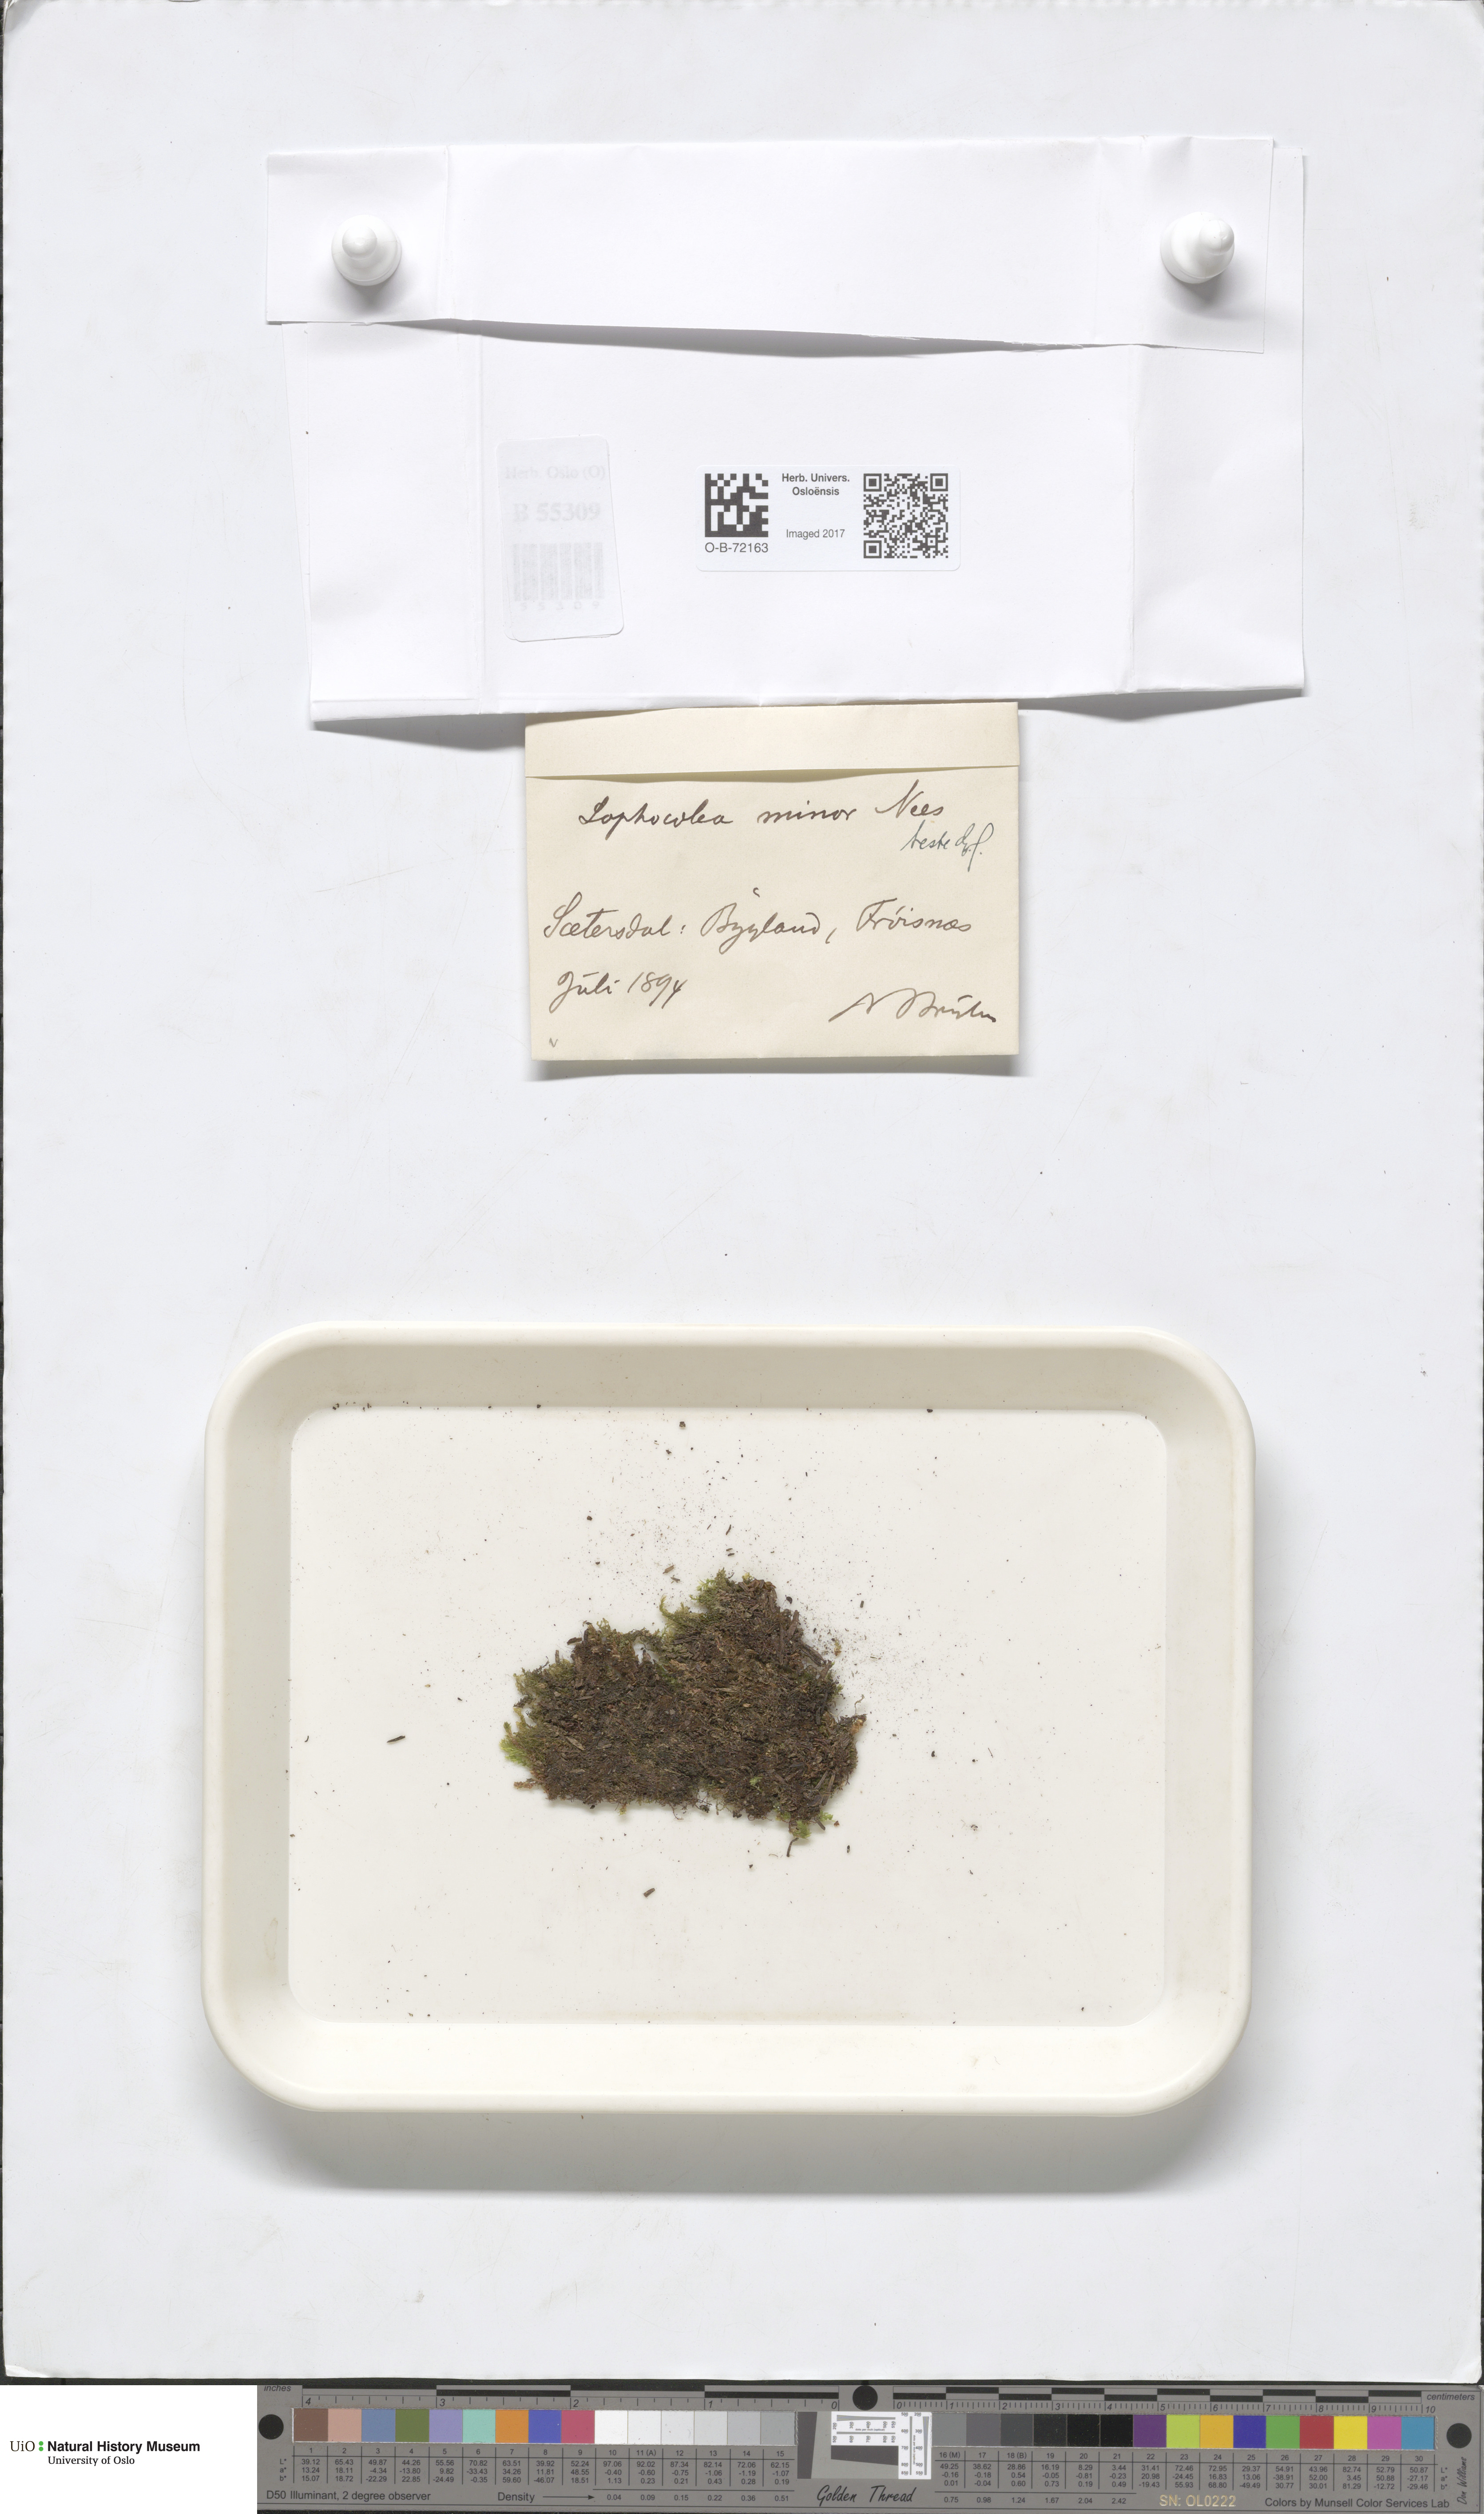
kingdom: Plantae
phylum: Marchantiophyta
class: Jungermanniopsida
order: Jungermanniales
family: Lophocoleaceae
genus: Lophocolea
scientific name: Lophocolea minor
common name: Lesser crestwort
